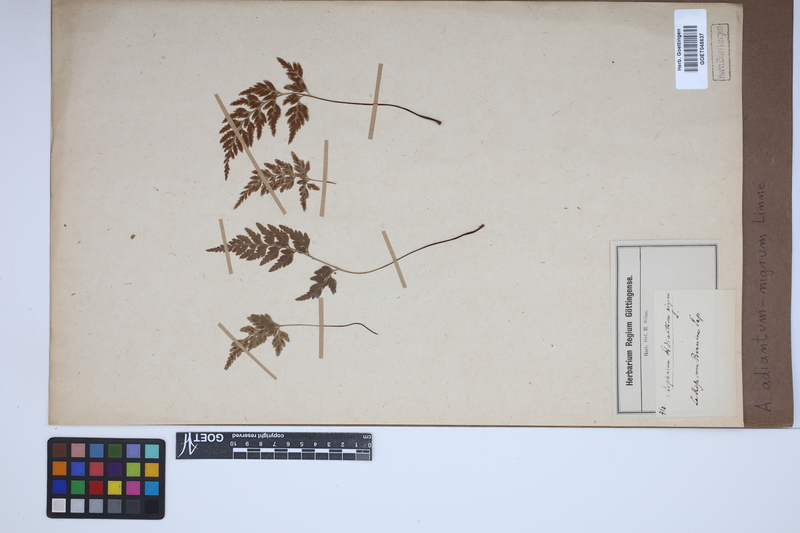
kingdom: Plantae
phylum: Tracheophyta
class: Polypodiopsida
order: Polypodiales
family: Aspleniaceae
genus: Asplenium
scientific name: Asplenium adiantum-nigrum
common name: Black spleenwort
